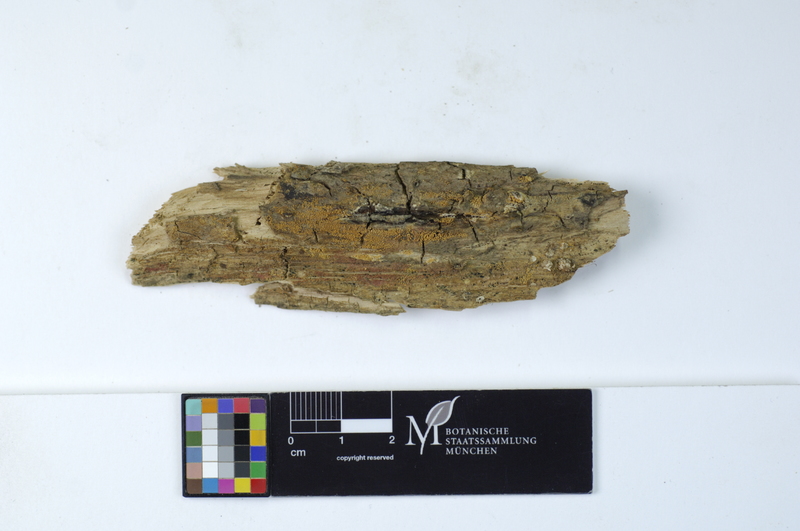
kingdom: Fungi
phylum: Basidiomycota
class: Agaricomycetes
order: Polyporales
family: Meruliaceae
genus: Bulbillomyces
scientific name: Bulbillomyces farinosus
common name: Couscous crust
